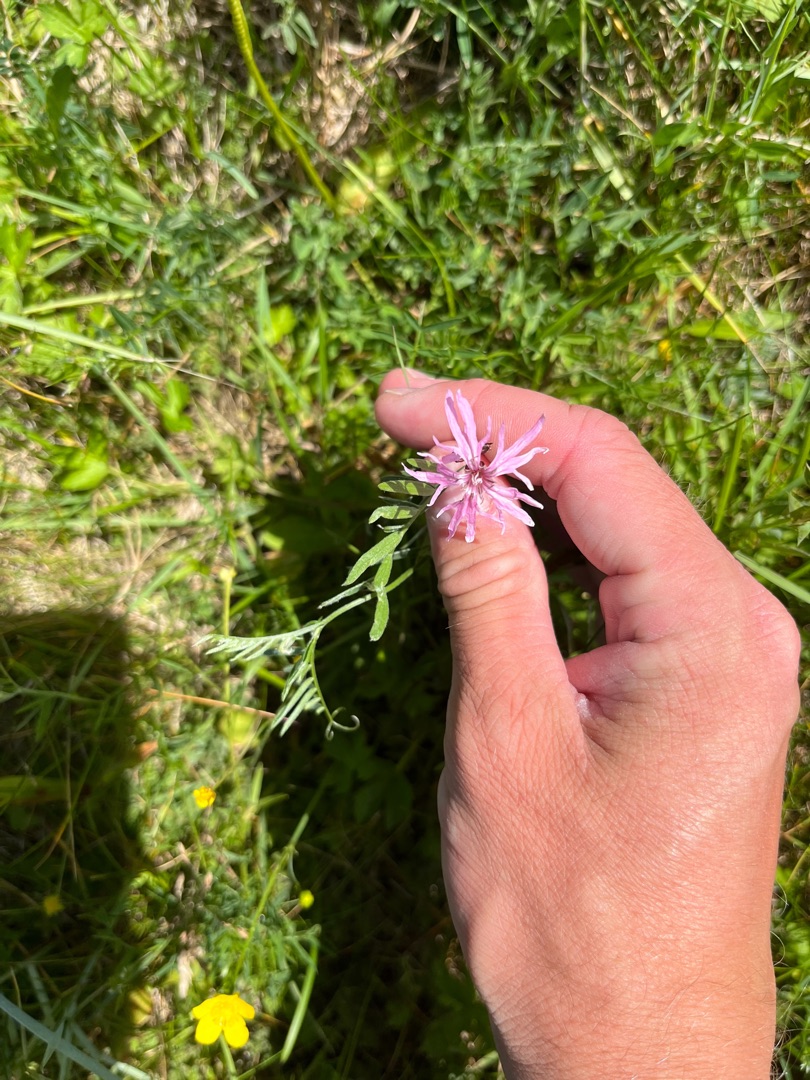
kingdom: Plantae
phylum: Tracheophyta
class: Magnoliopsida
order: Caryophyllales
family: Caryophyllaceae
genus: Silene
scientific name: Silene flos-cuculi
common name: Trævlekrone
